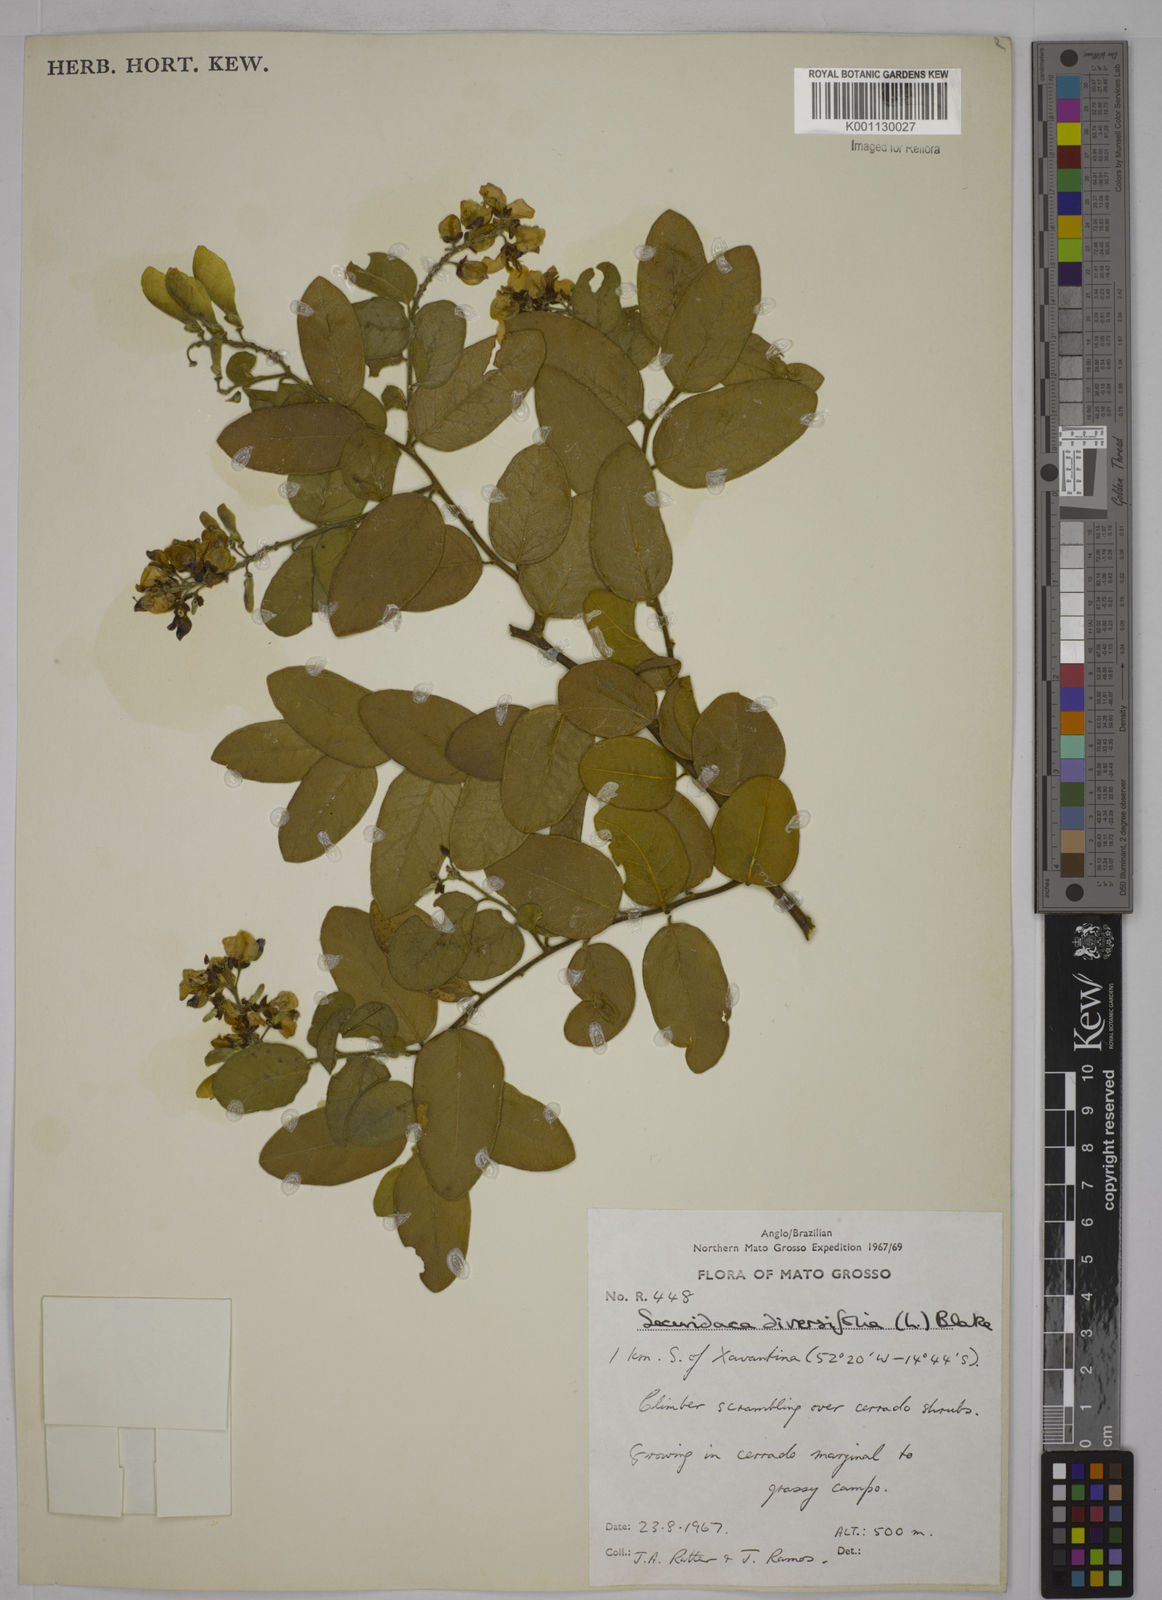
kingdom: Plantae
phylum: Tracheophyta
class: Magnoliopsida
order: Fabales
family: Polygalaceae
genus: Securidaca
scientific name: Securidaca diversifolia
